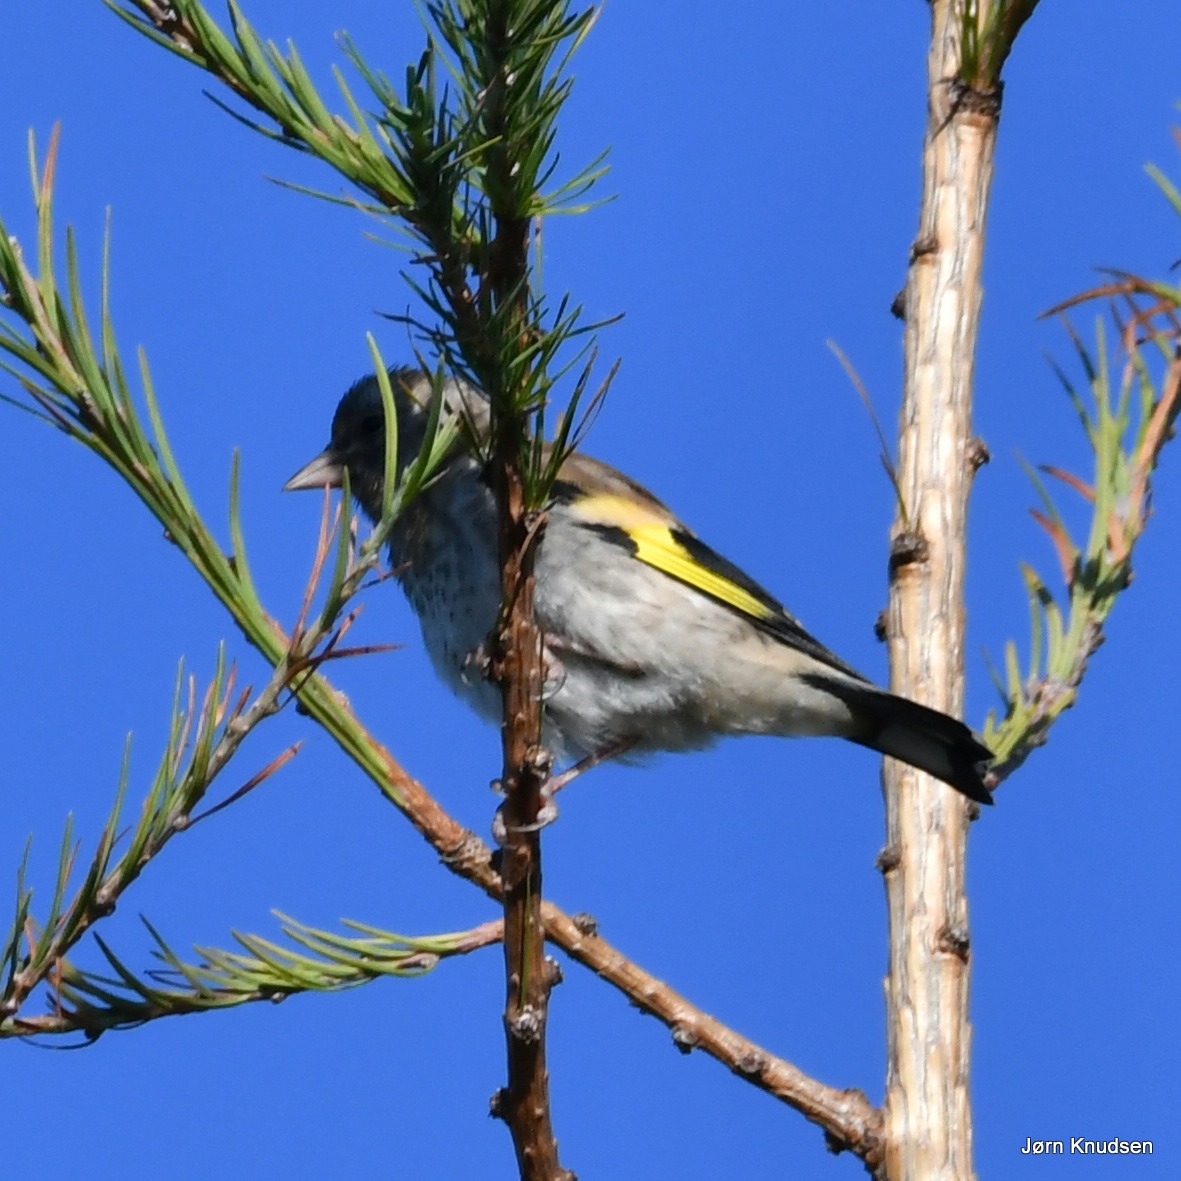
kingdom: Animalia
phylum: Chordata
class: Aves
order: Passeriformes
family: Fringillidae
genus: Carduelis
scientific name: Carduelis carduelis
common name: Stillits
